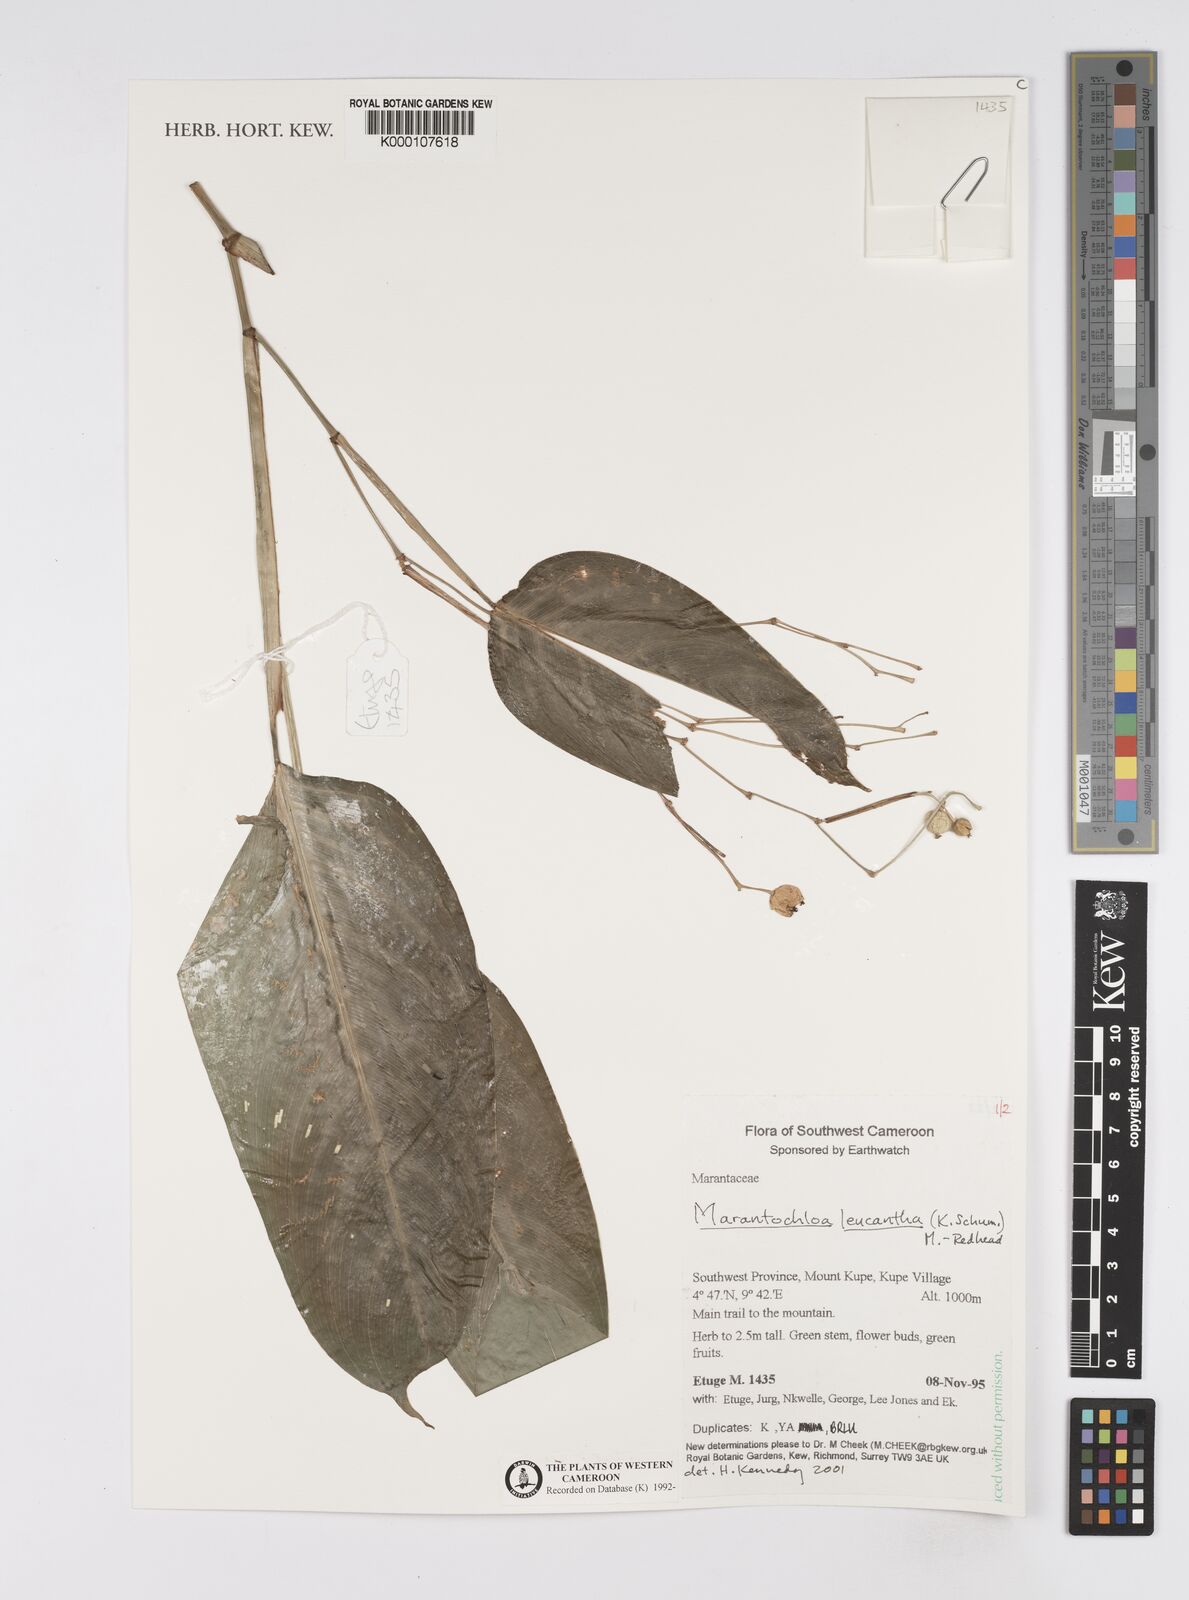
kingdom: Plantae
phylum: Tracheophyta
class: Liliopsida
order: Zingiberales
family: Marantaceae
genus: Marantochloa
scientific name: Marantochloa leucantha
